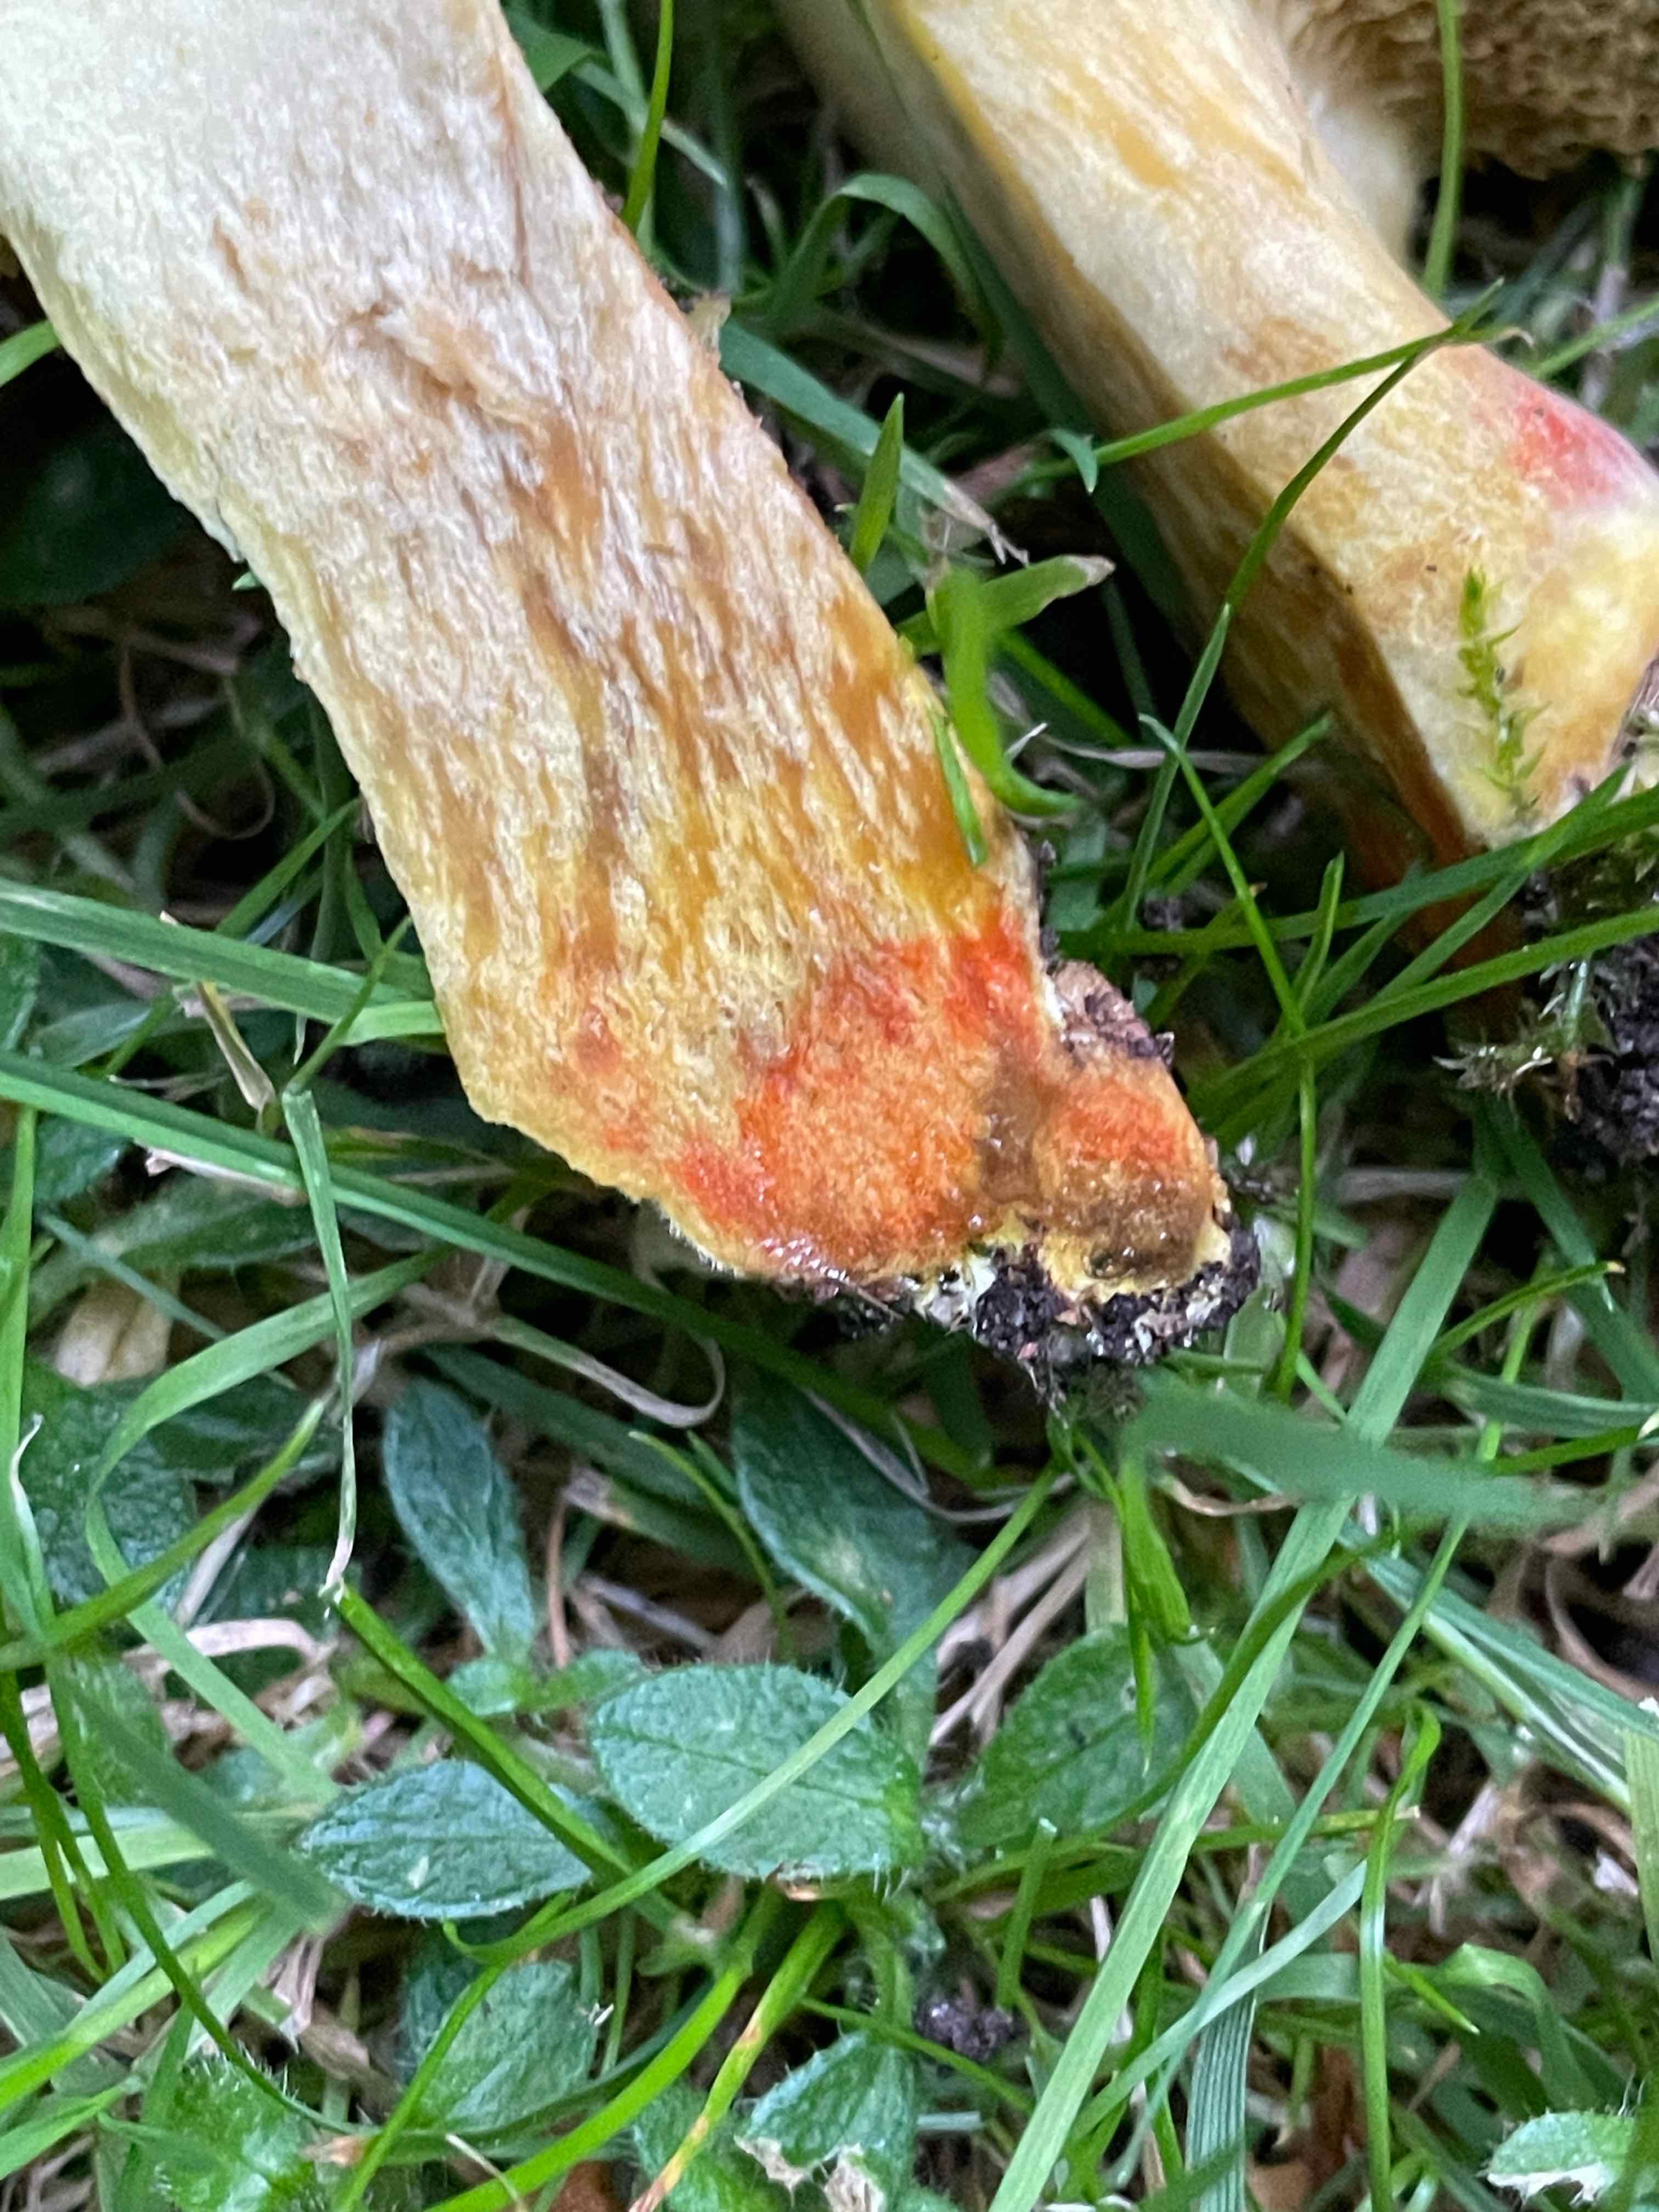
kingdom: Fungi
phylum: Basidiomycota
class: Agaricomycetes
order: Boletales
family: Boletaceae
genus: Hortiboletus
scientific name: Hortiboletus engelii
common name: fersken-rørhat
